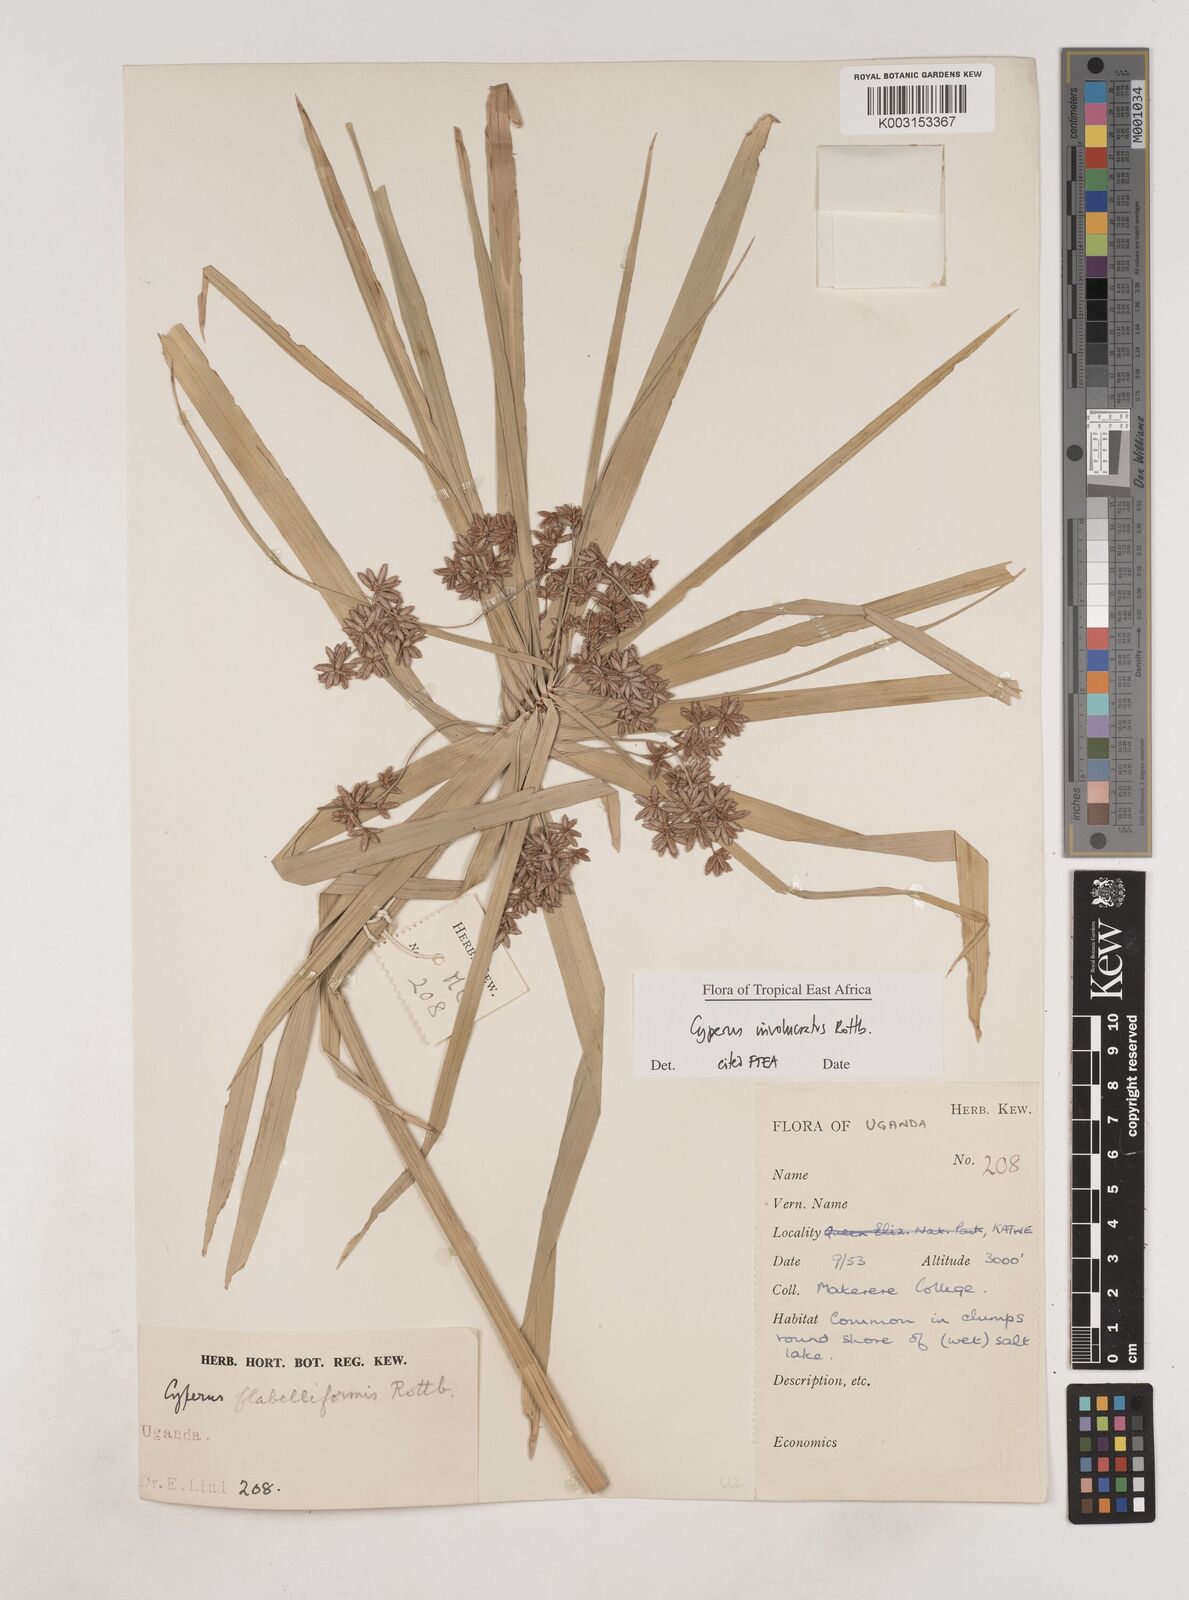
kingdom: Plantae
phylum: Tracheophyta
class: Liliopsida
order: Poales
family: Cyperaceae
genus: Cyperus
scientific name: Cyperus alternifolius
